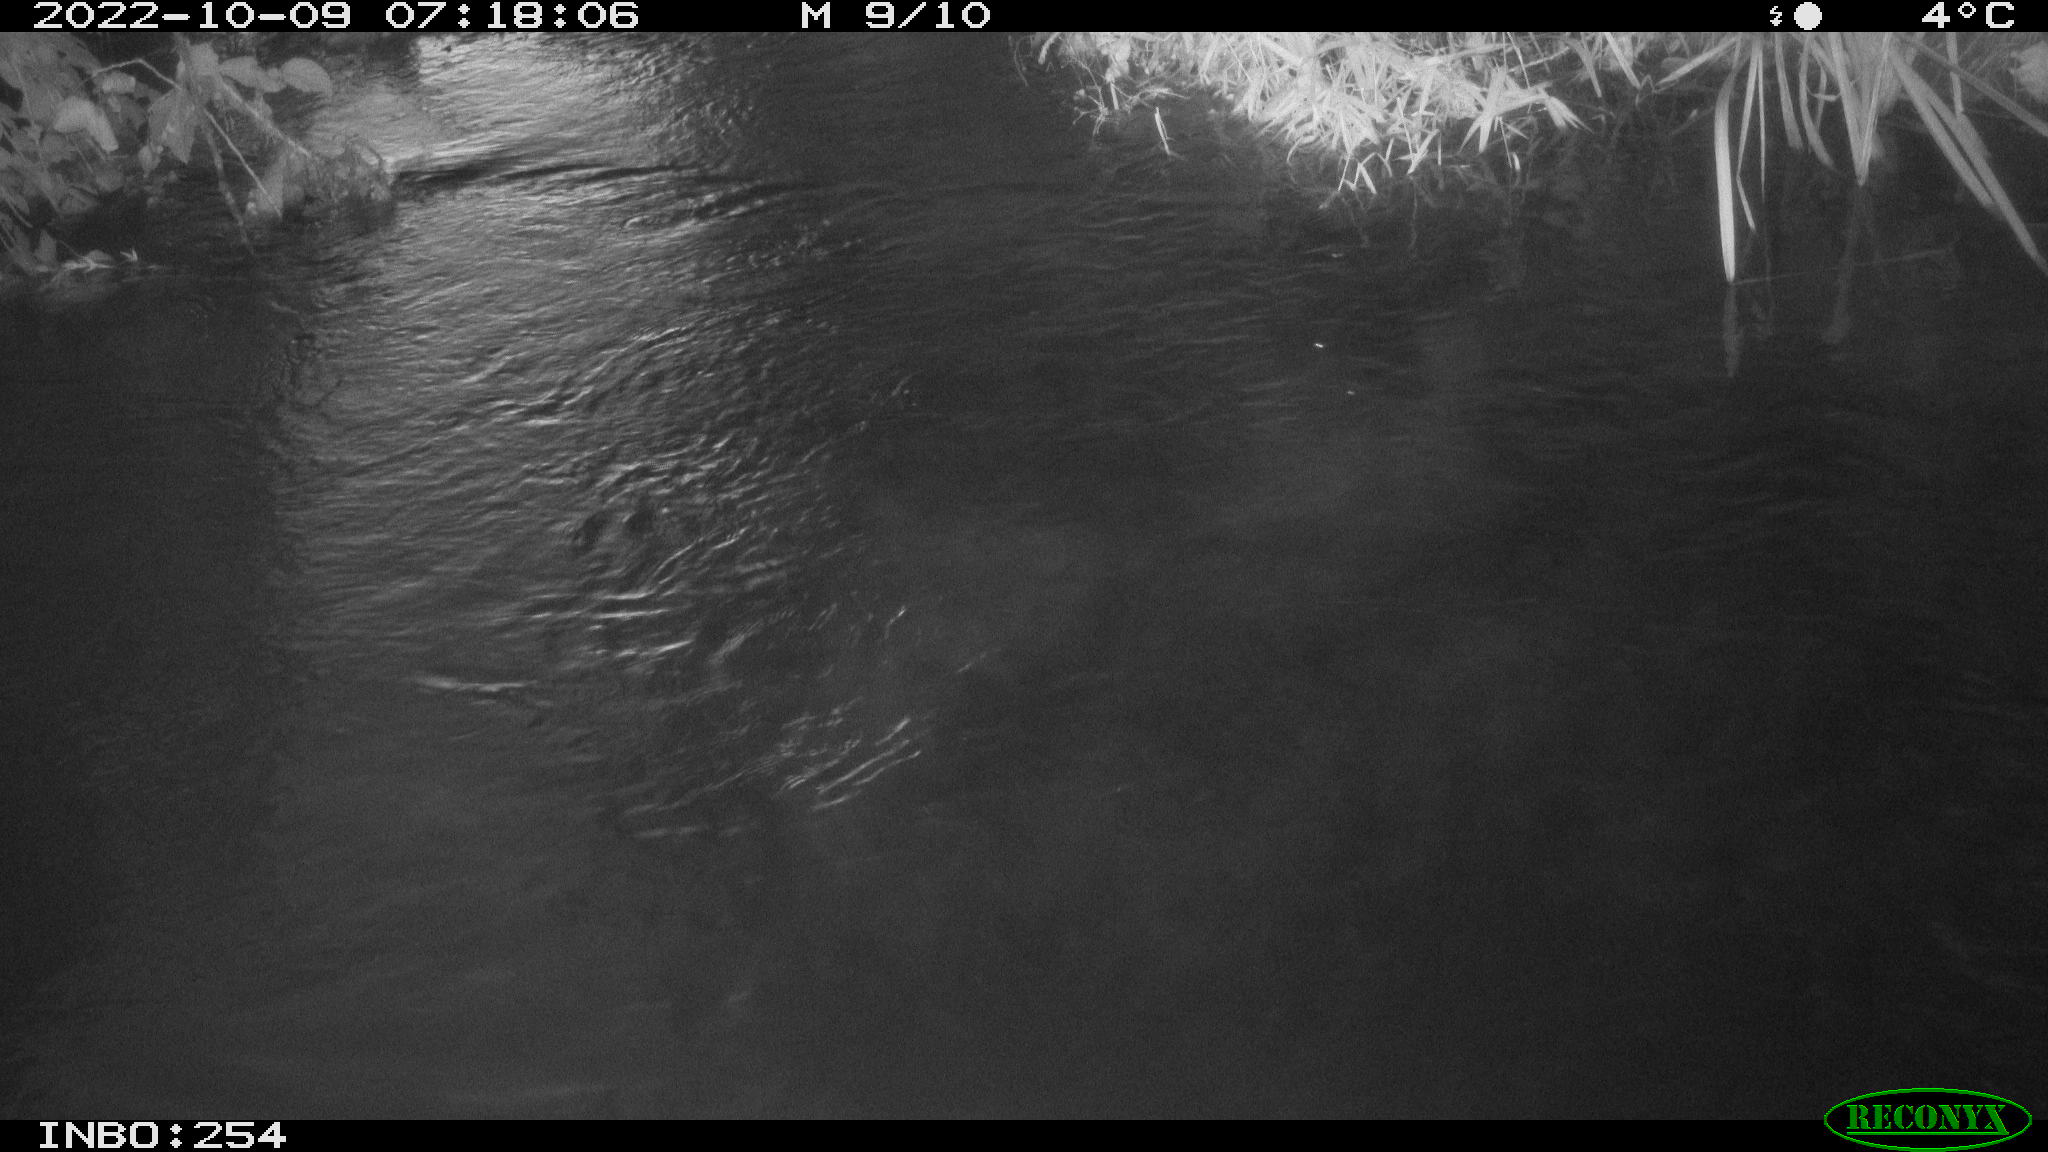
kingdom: Animalia
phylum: Chordata
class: Aves
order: Anseriformes
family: Anatidae
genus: Anas
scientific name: Anas
